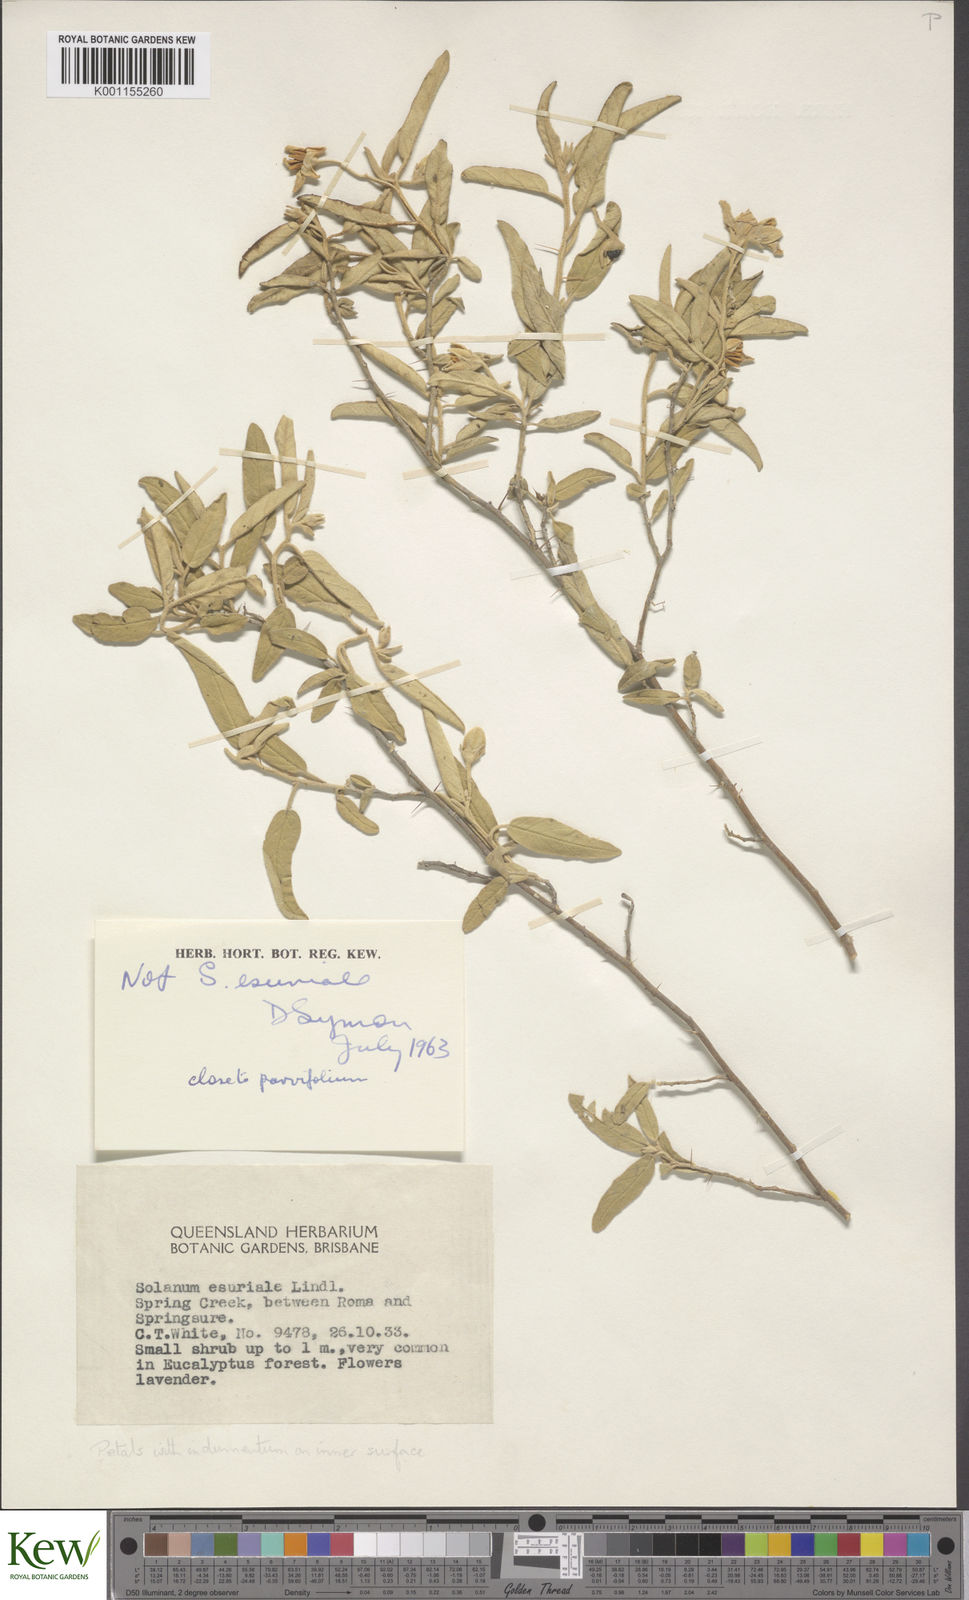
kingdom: Plantae
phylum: Tracheophyta
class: Magnoliopsida
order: Solanales
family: Solanaceae
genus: Solanum
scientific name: Solanum
